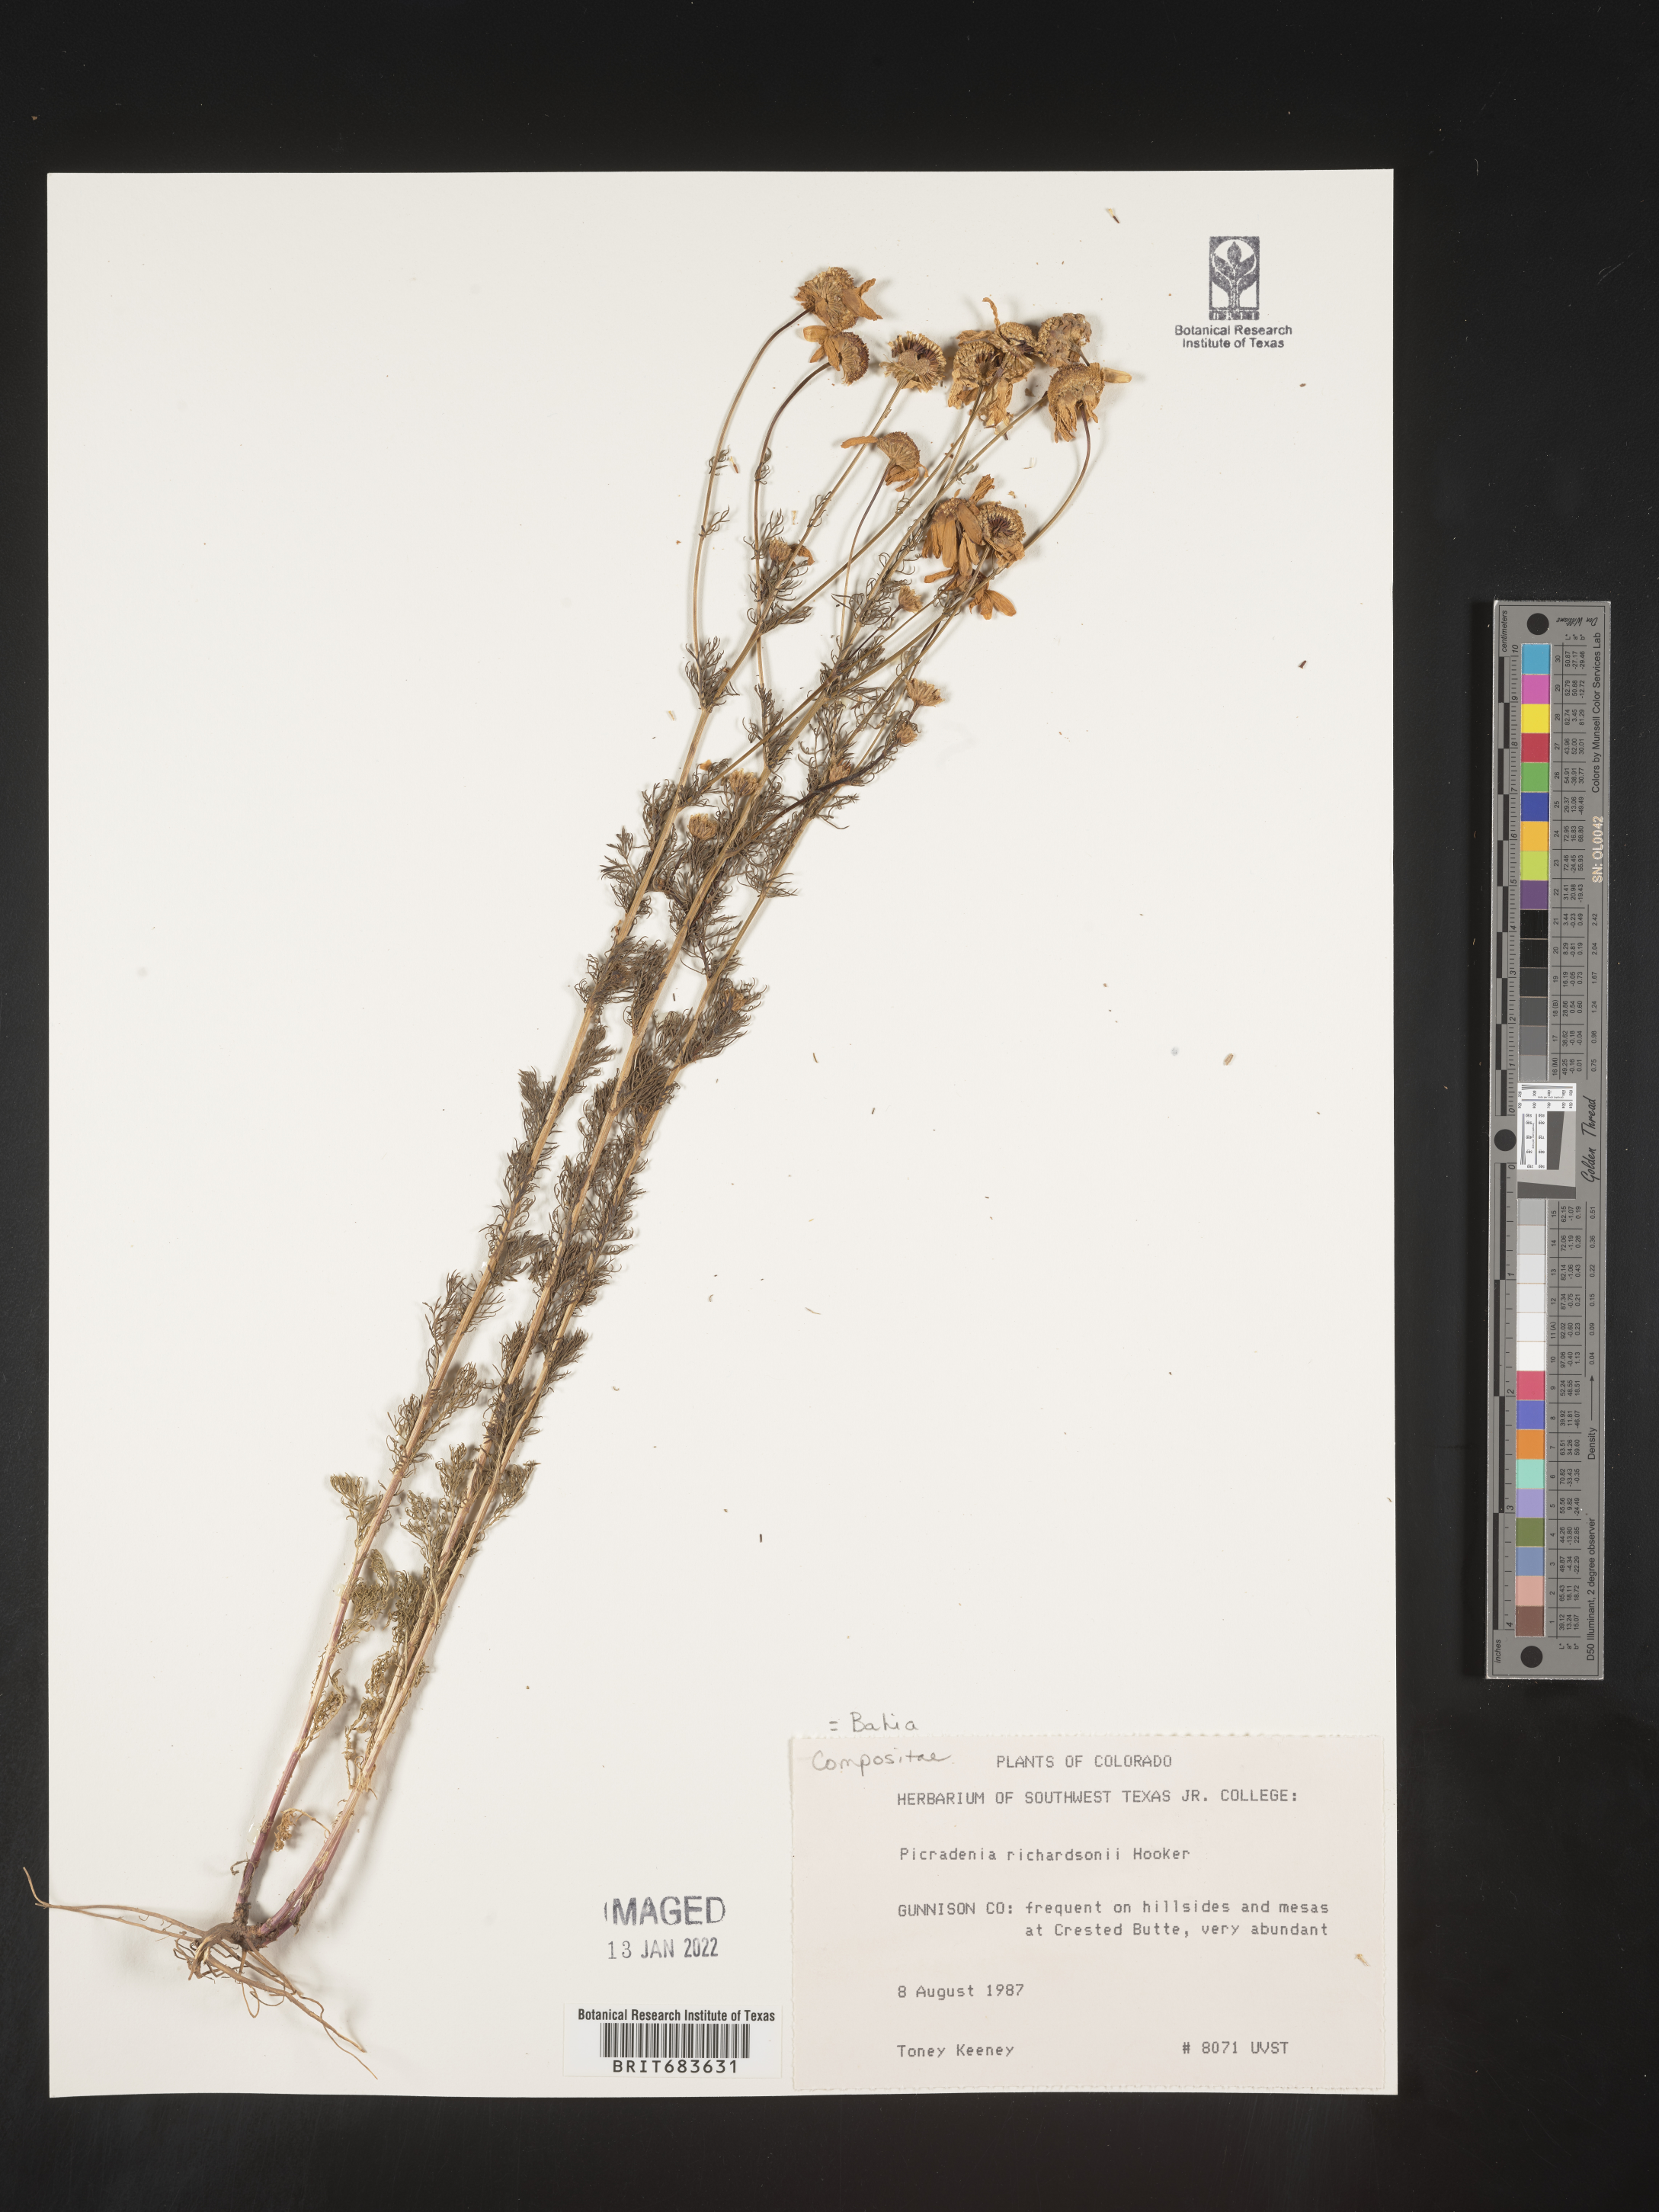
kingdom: Plantae
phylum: Tracheophyta
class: Magnoliopsida
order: Asterales
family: Asteraceae
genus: Picradeniopsis
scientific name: Picradeniopsis absinthifolia
